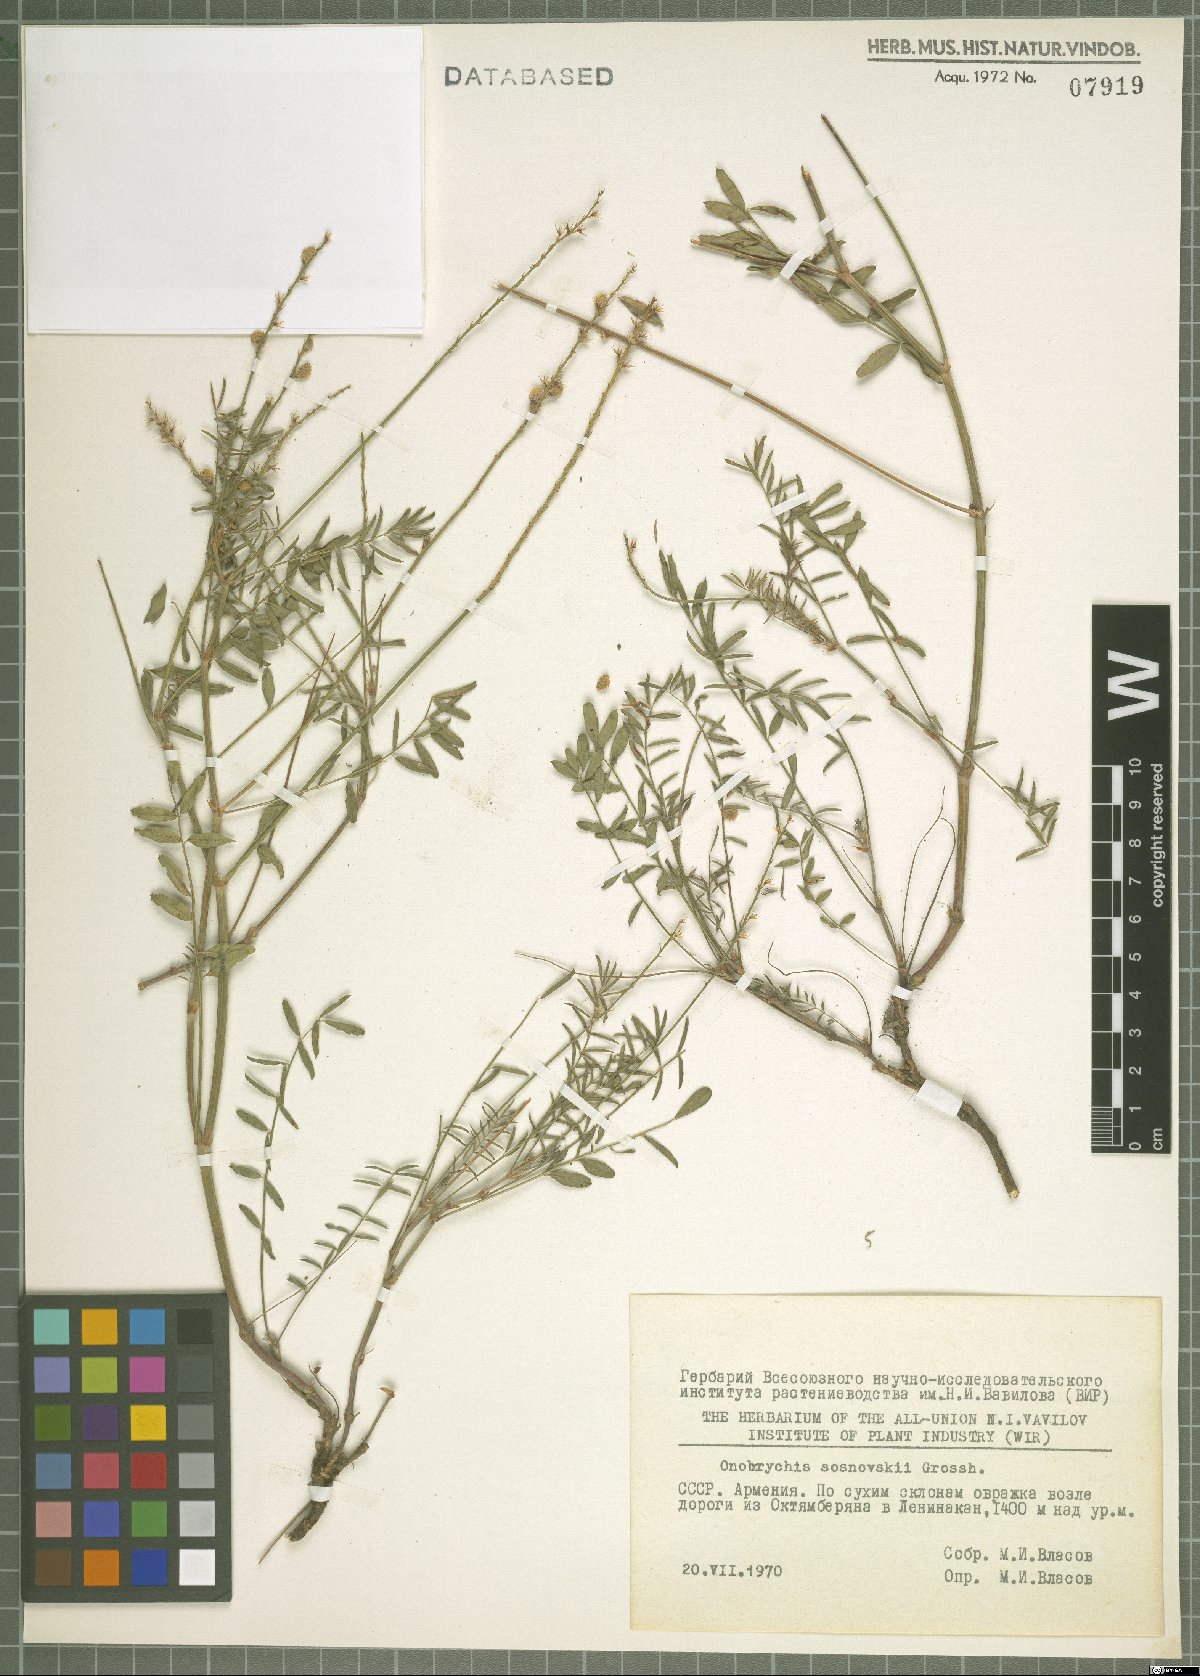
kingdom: Plantae
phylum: Tracheophyta
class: Magnoliopsida
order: Fabales
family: Fabaceae
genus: Onobrychis
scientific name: Onobrychis sosnowskyi
